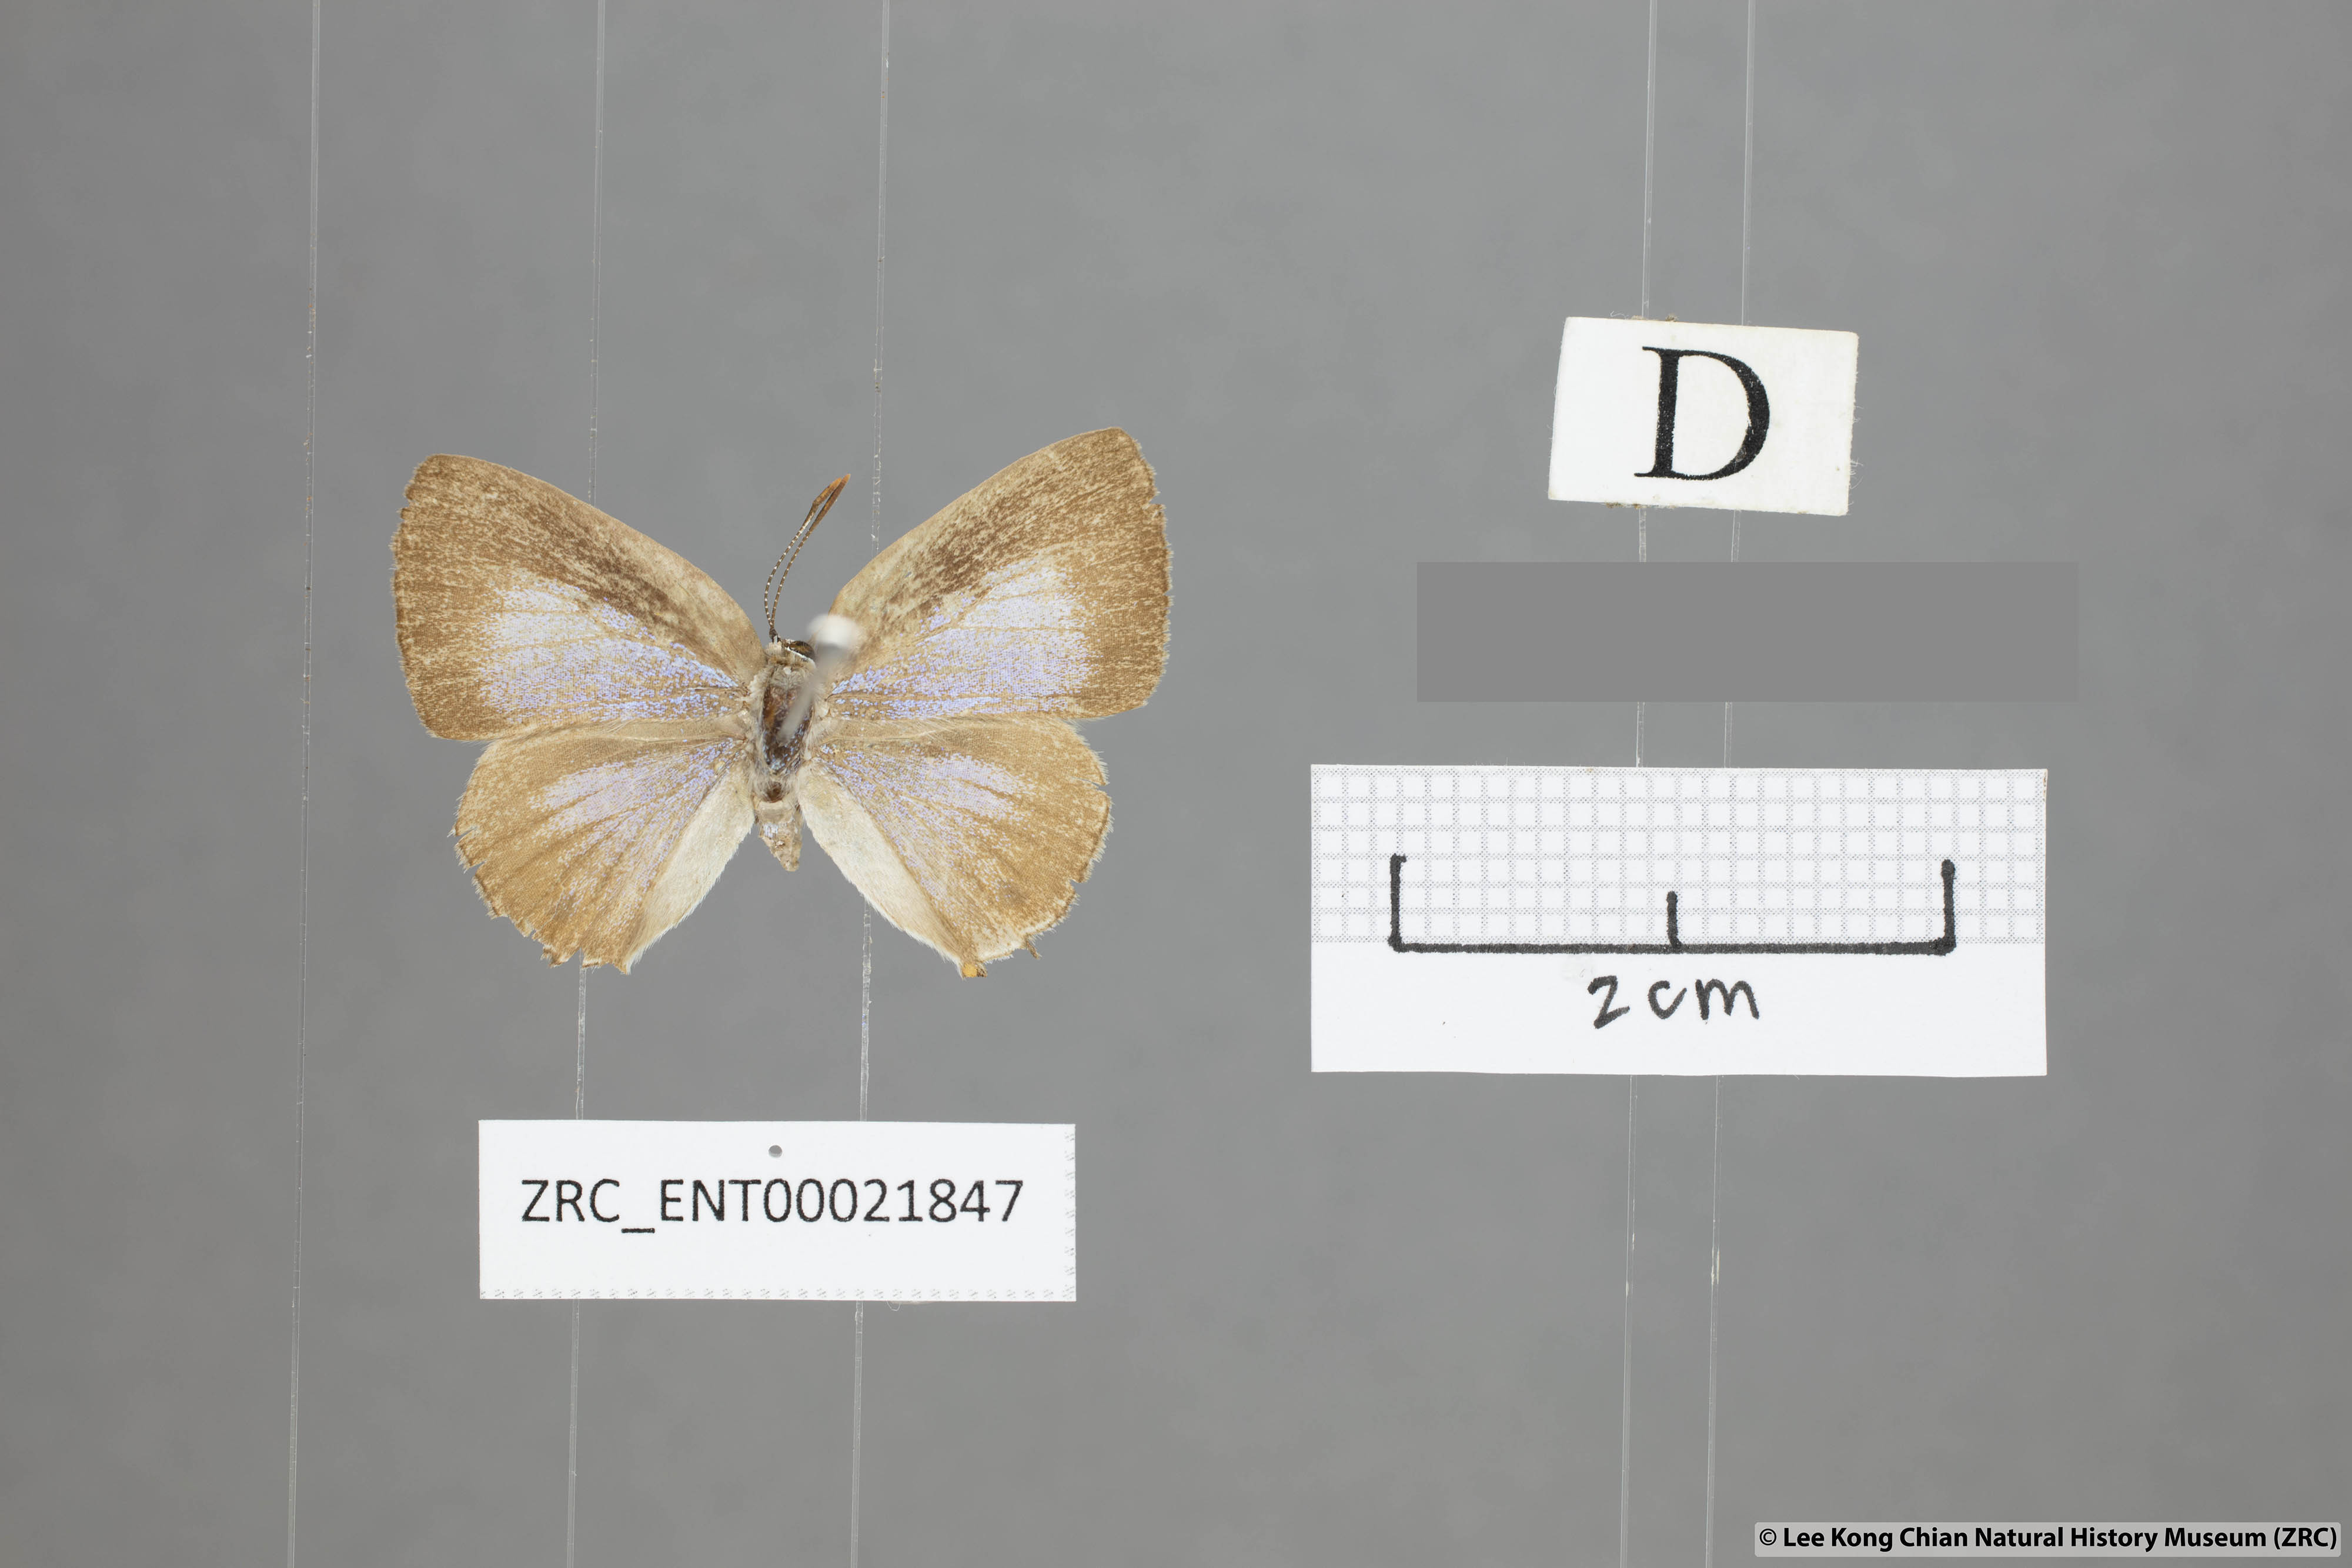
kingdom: Animalia
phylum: Arthropoda
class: Insecta
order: Lepidoptera
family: Lycaenidae
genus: Deudorix
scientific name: Deudorix kessuma
